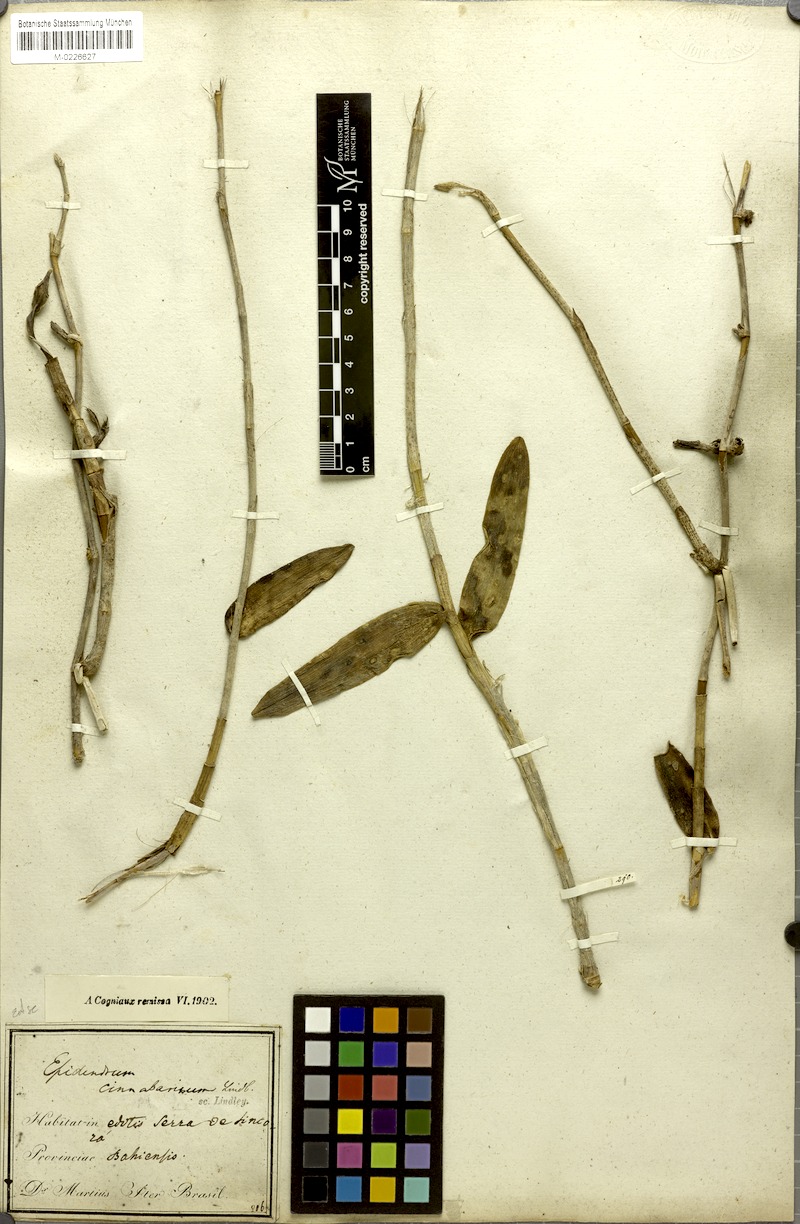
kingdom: Plantae
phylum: Tracheophyta
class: Liliopsida
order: Asparagales
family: Orchidaceae
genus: Epidendrum
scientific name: Epidendrum cinnabarinum
